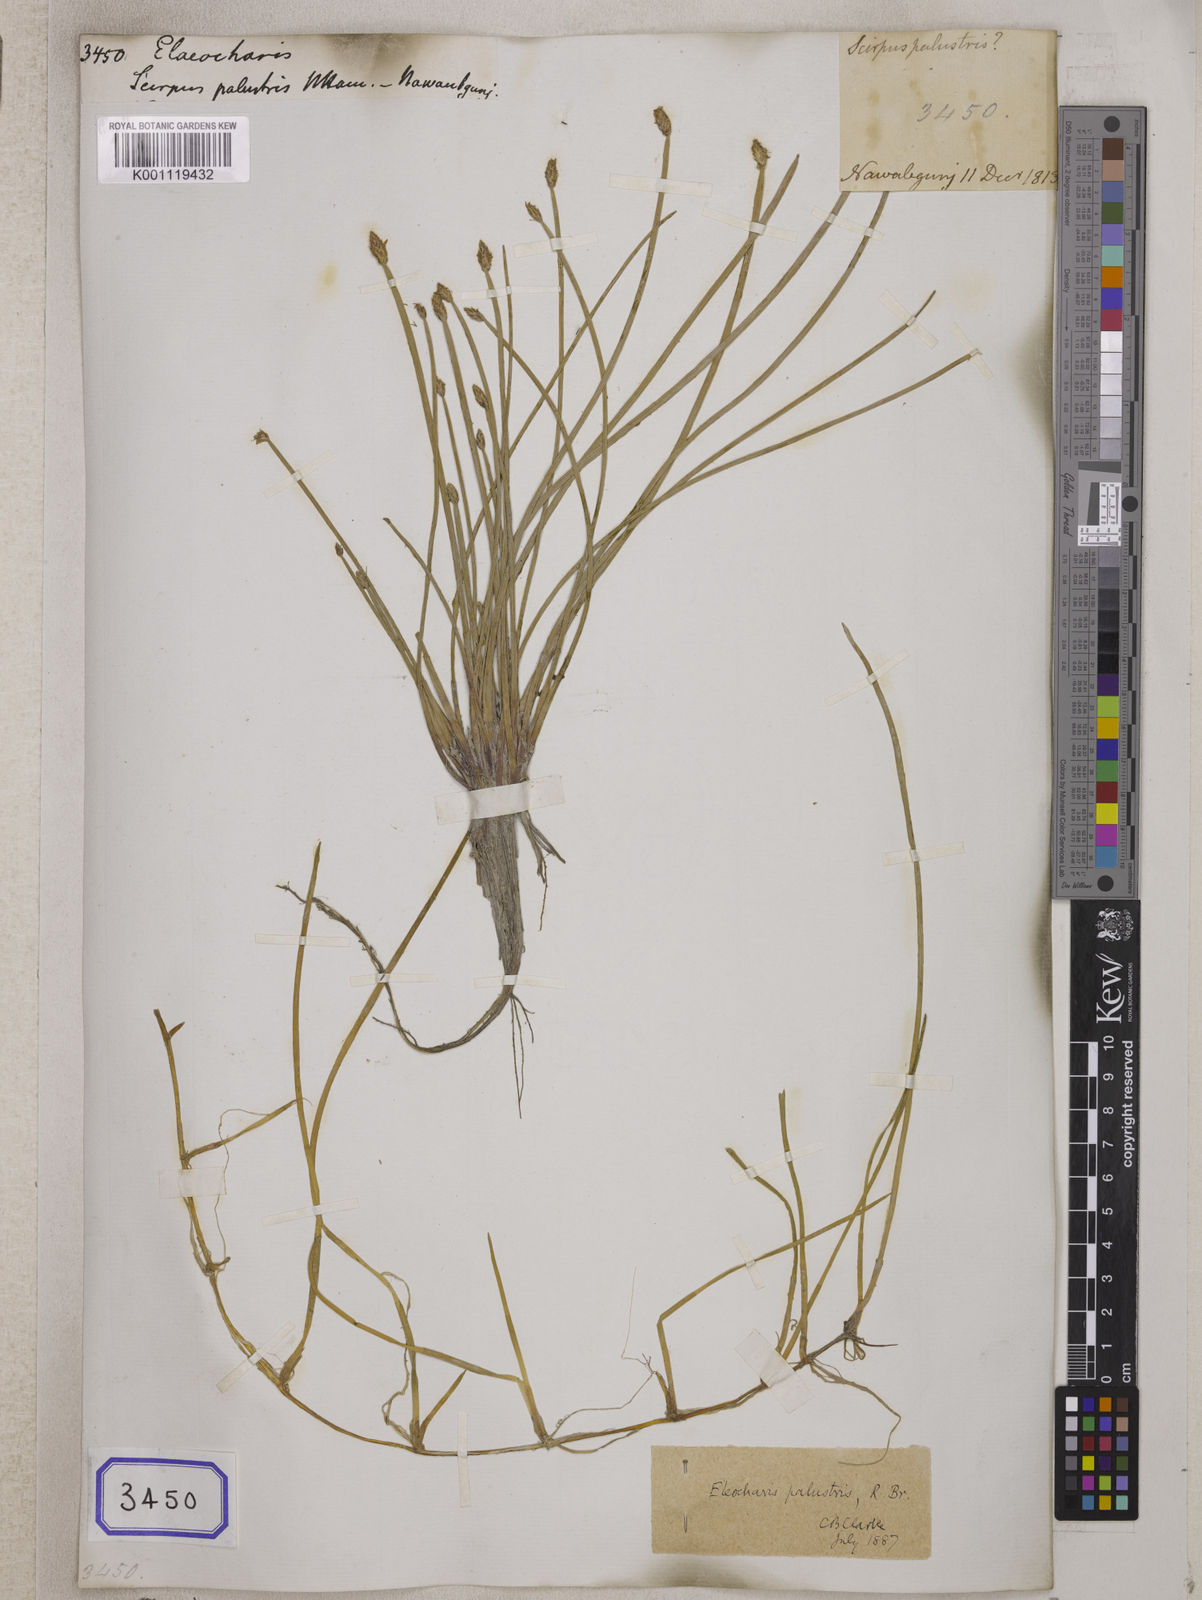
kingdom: Plantae
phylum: Tracheophyta
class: Liliopsida
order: Poales
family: Cyperaceae
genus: Eleocharis
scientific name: Eleocharis
